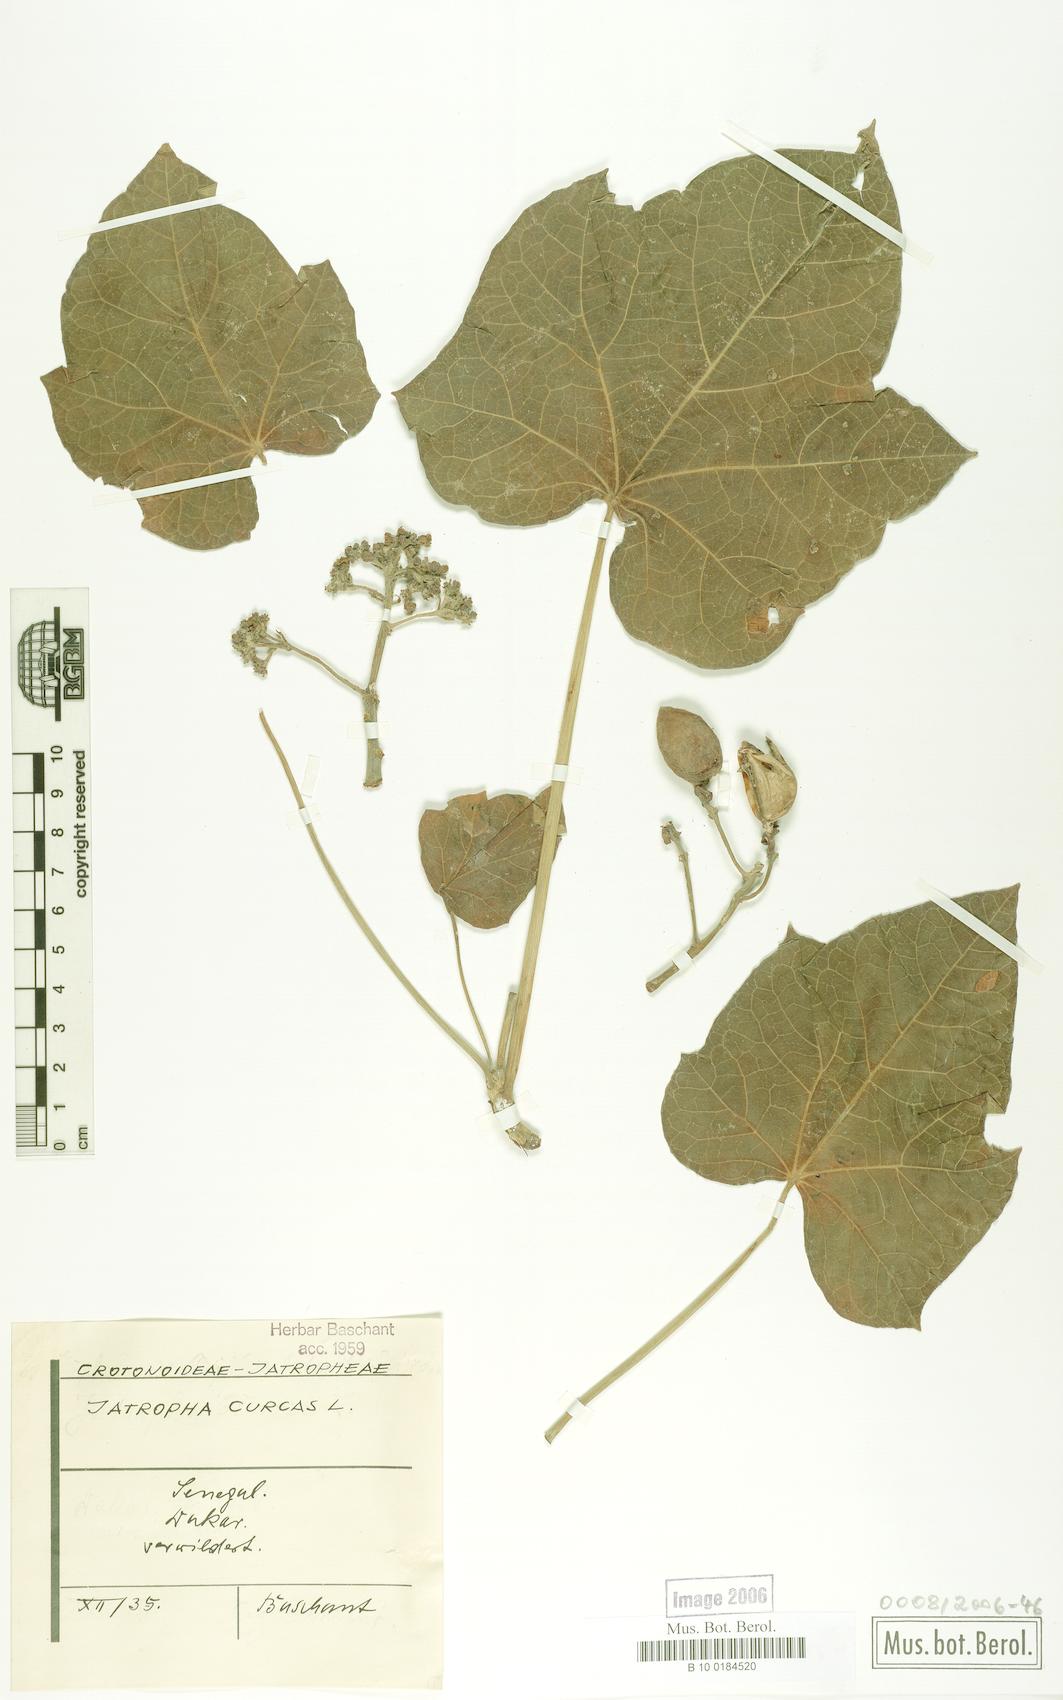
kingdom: Plantae
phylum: Tracheophyta
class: Magnoliopsida
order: Malpighiales
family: Euphorbiaceae
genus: Jatropha
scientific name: Jatropha curcas
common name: Barbados nut
